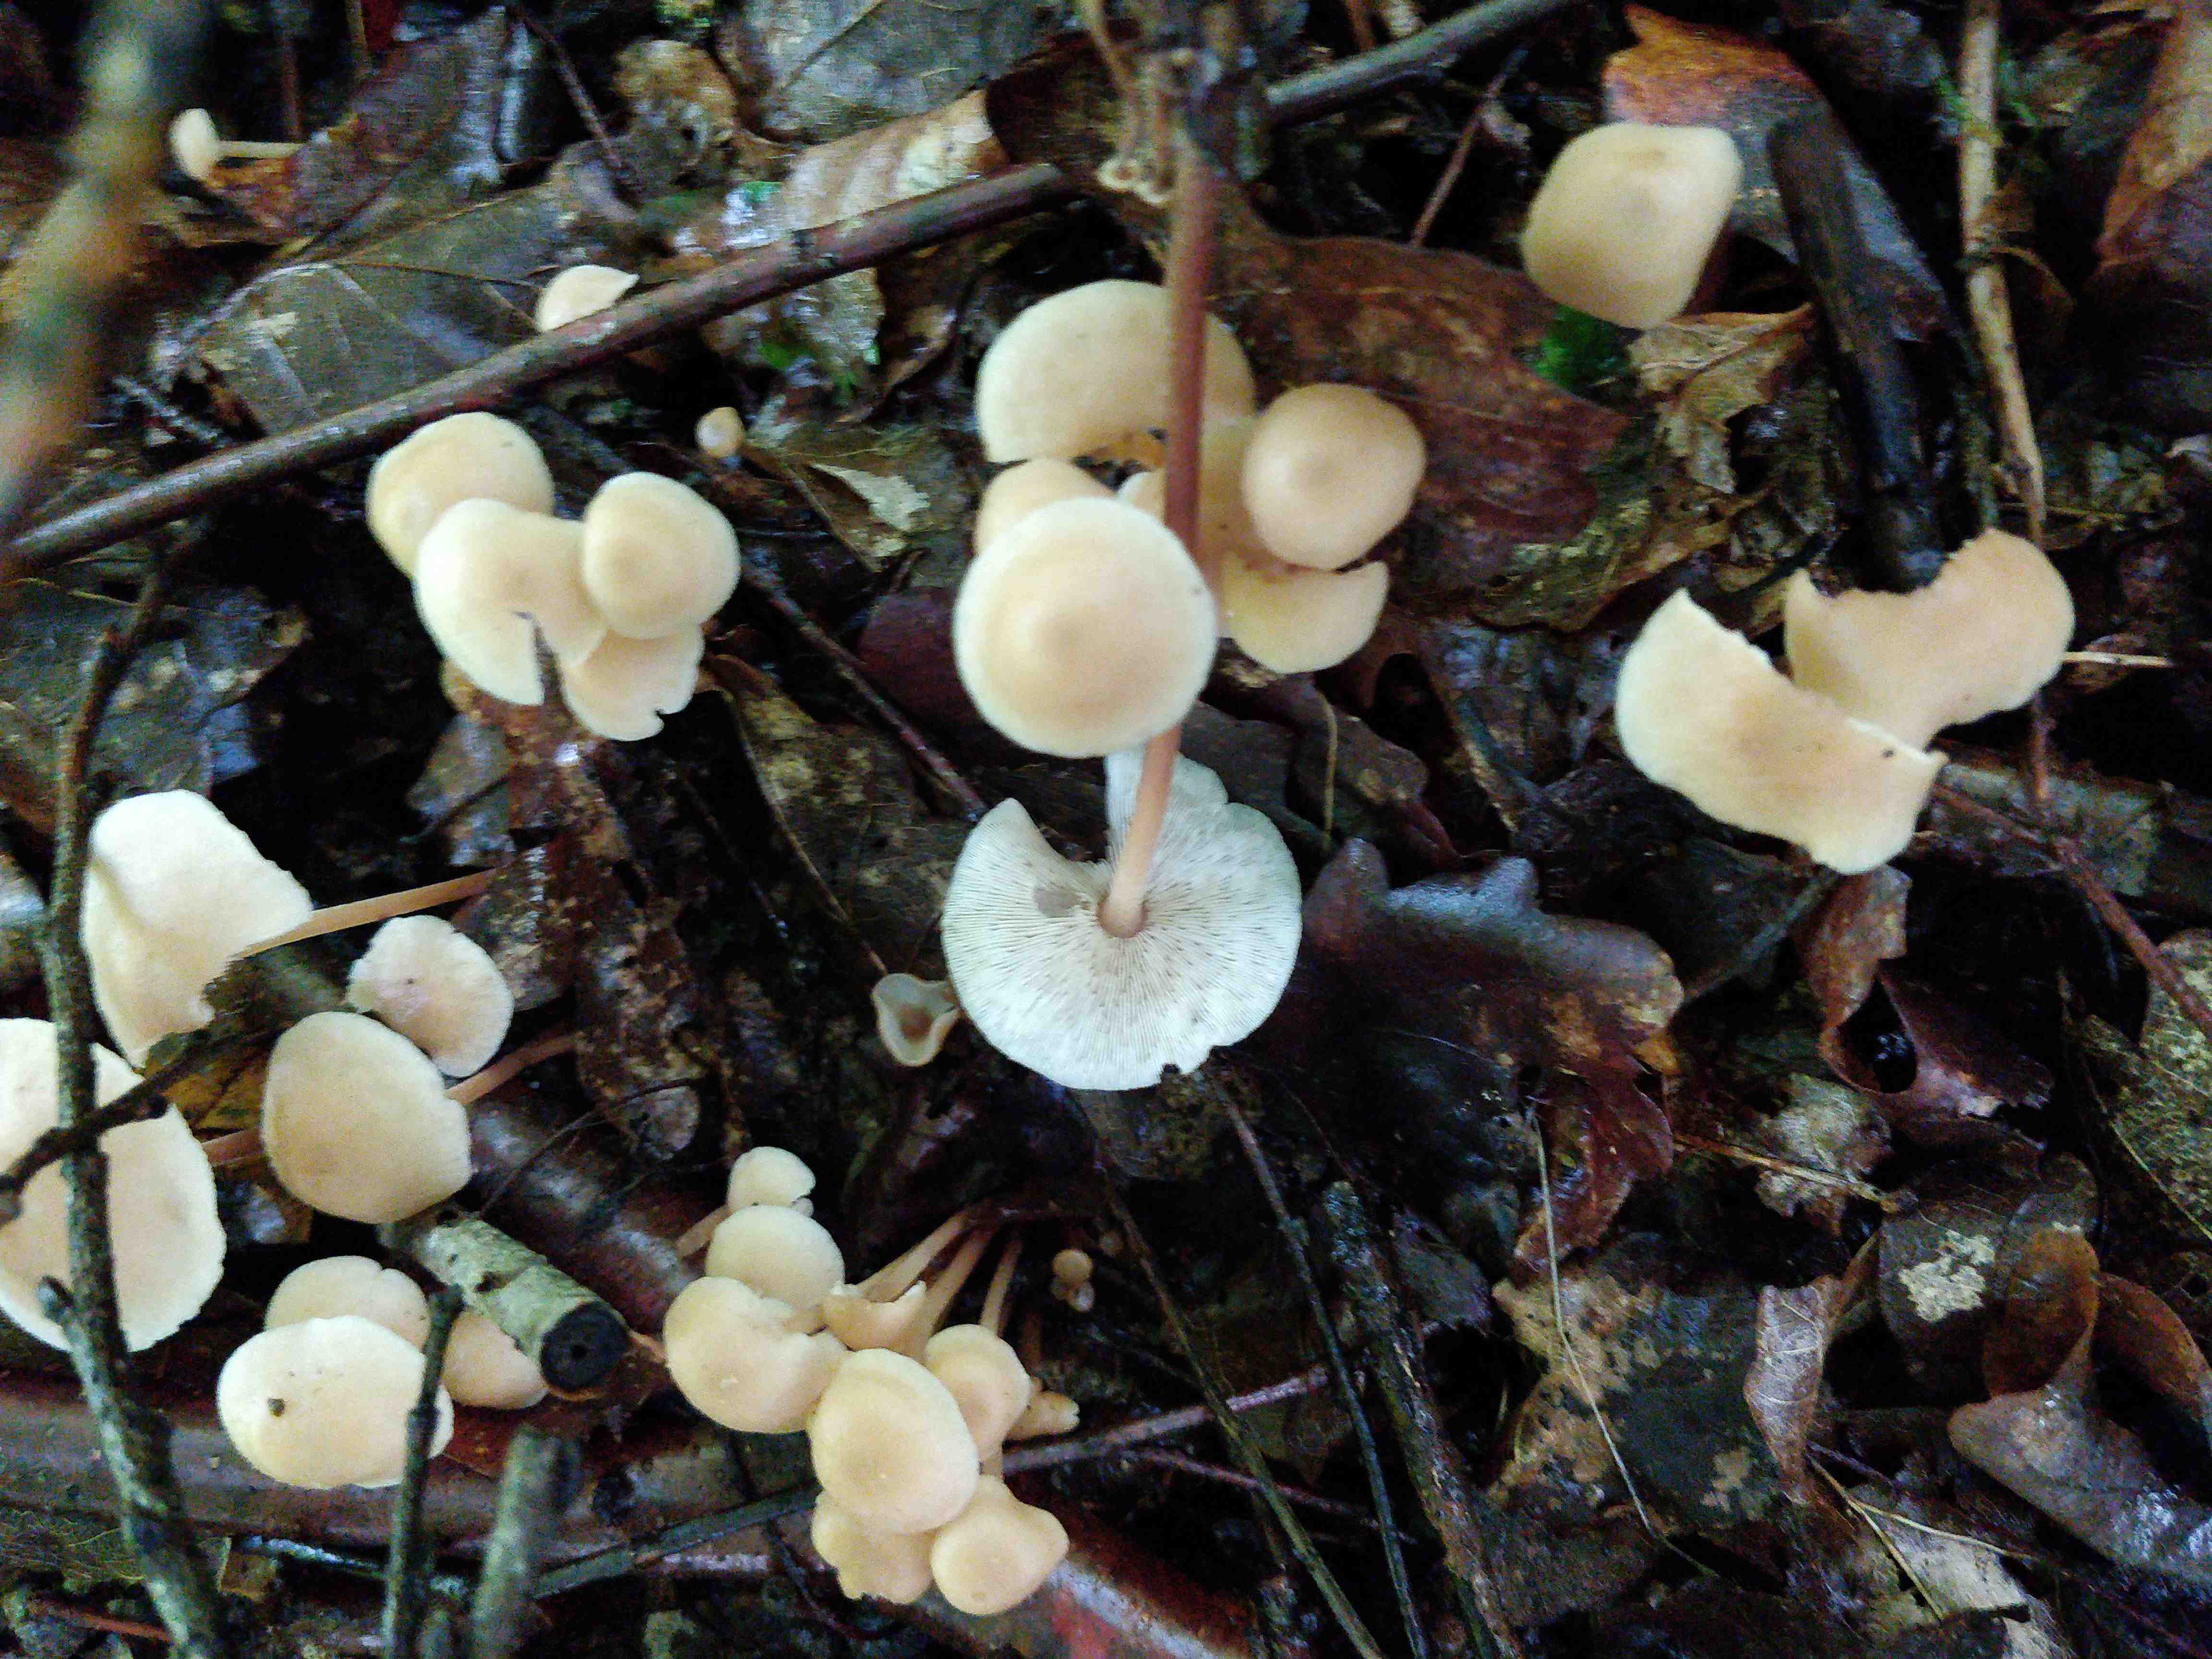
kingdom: Fungi
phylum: Basidiomycota
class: Agaricomycetes
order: Agaricales
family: Omphalotaceae
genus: Collybiopsis
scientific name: Collybiopsis confluens
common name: knippe-fladhat
